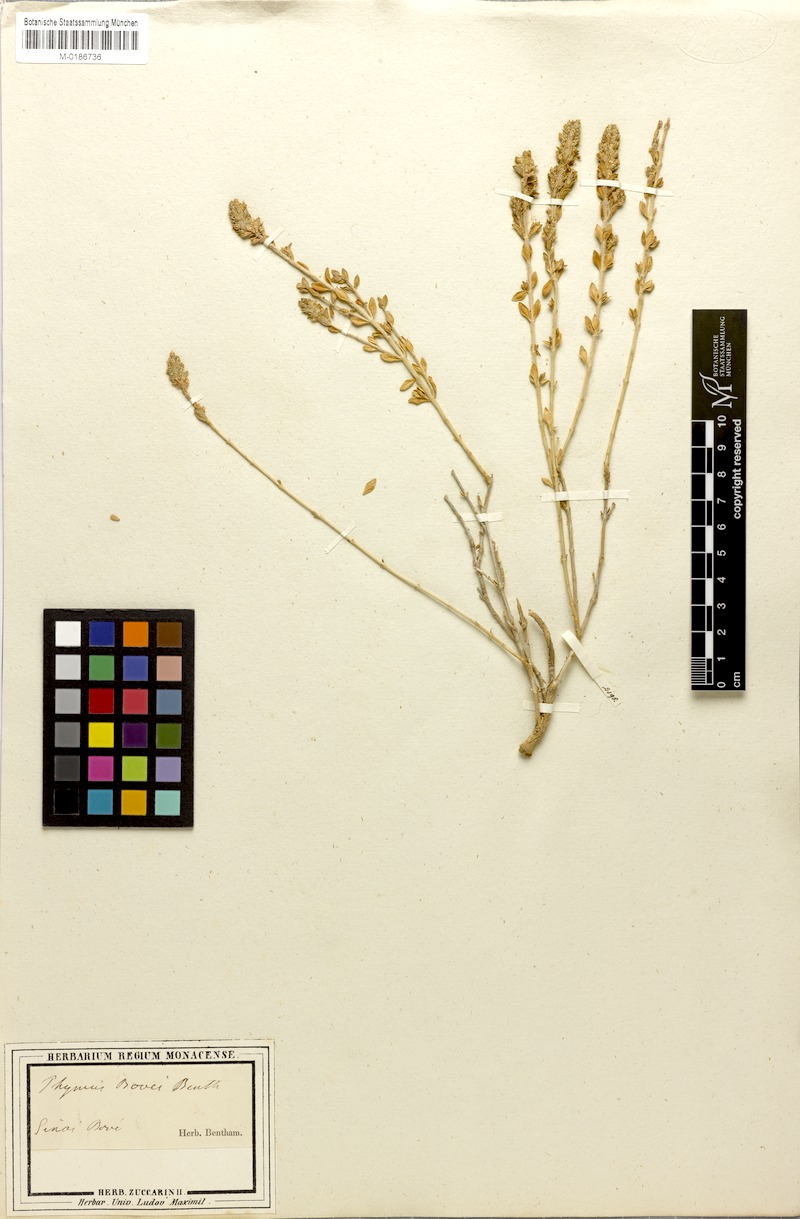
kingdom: Plantae
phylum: Tracheophyta
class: Magnoliopsida
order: Lamiales
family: Lamiaceae
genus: Thymus
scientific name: Thymus bovei
